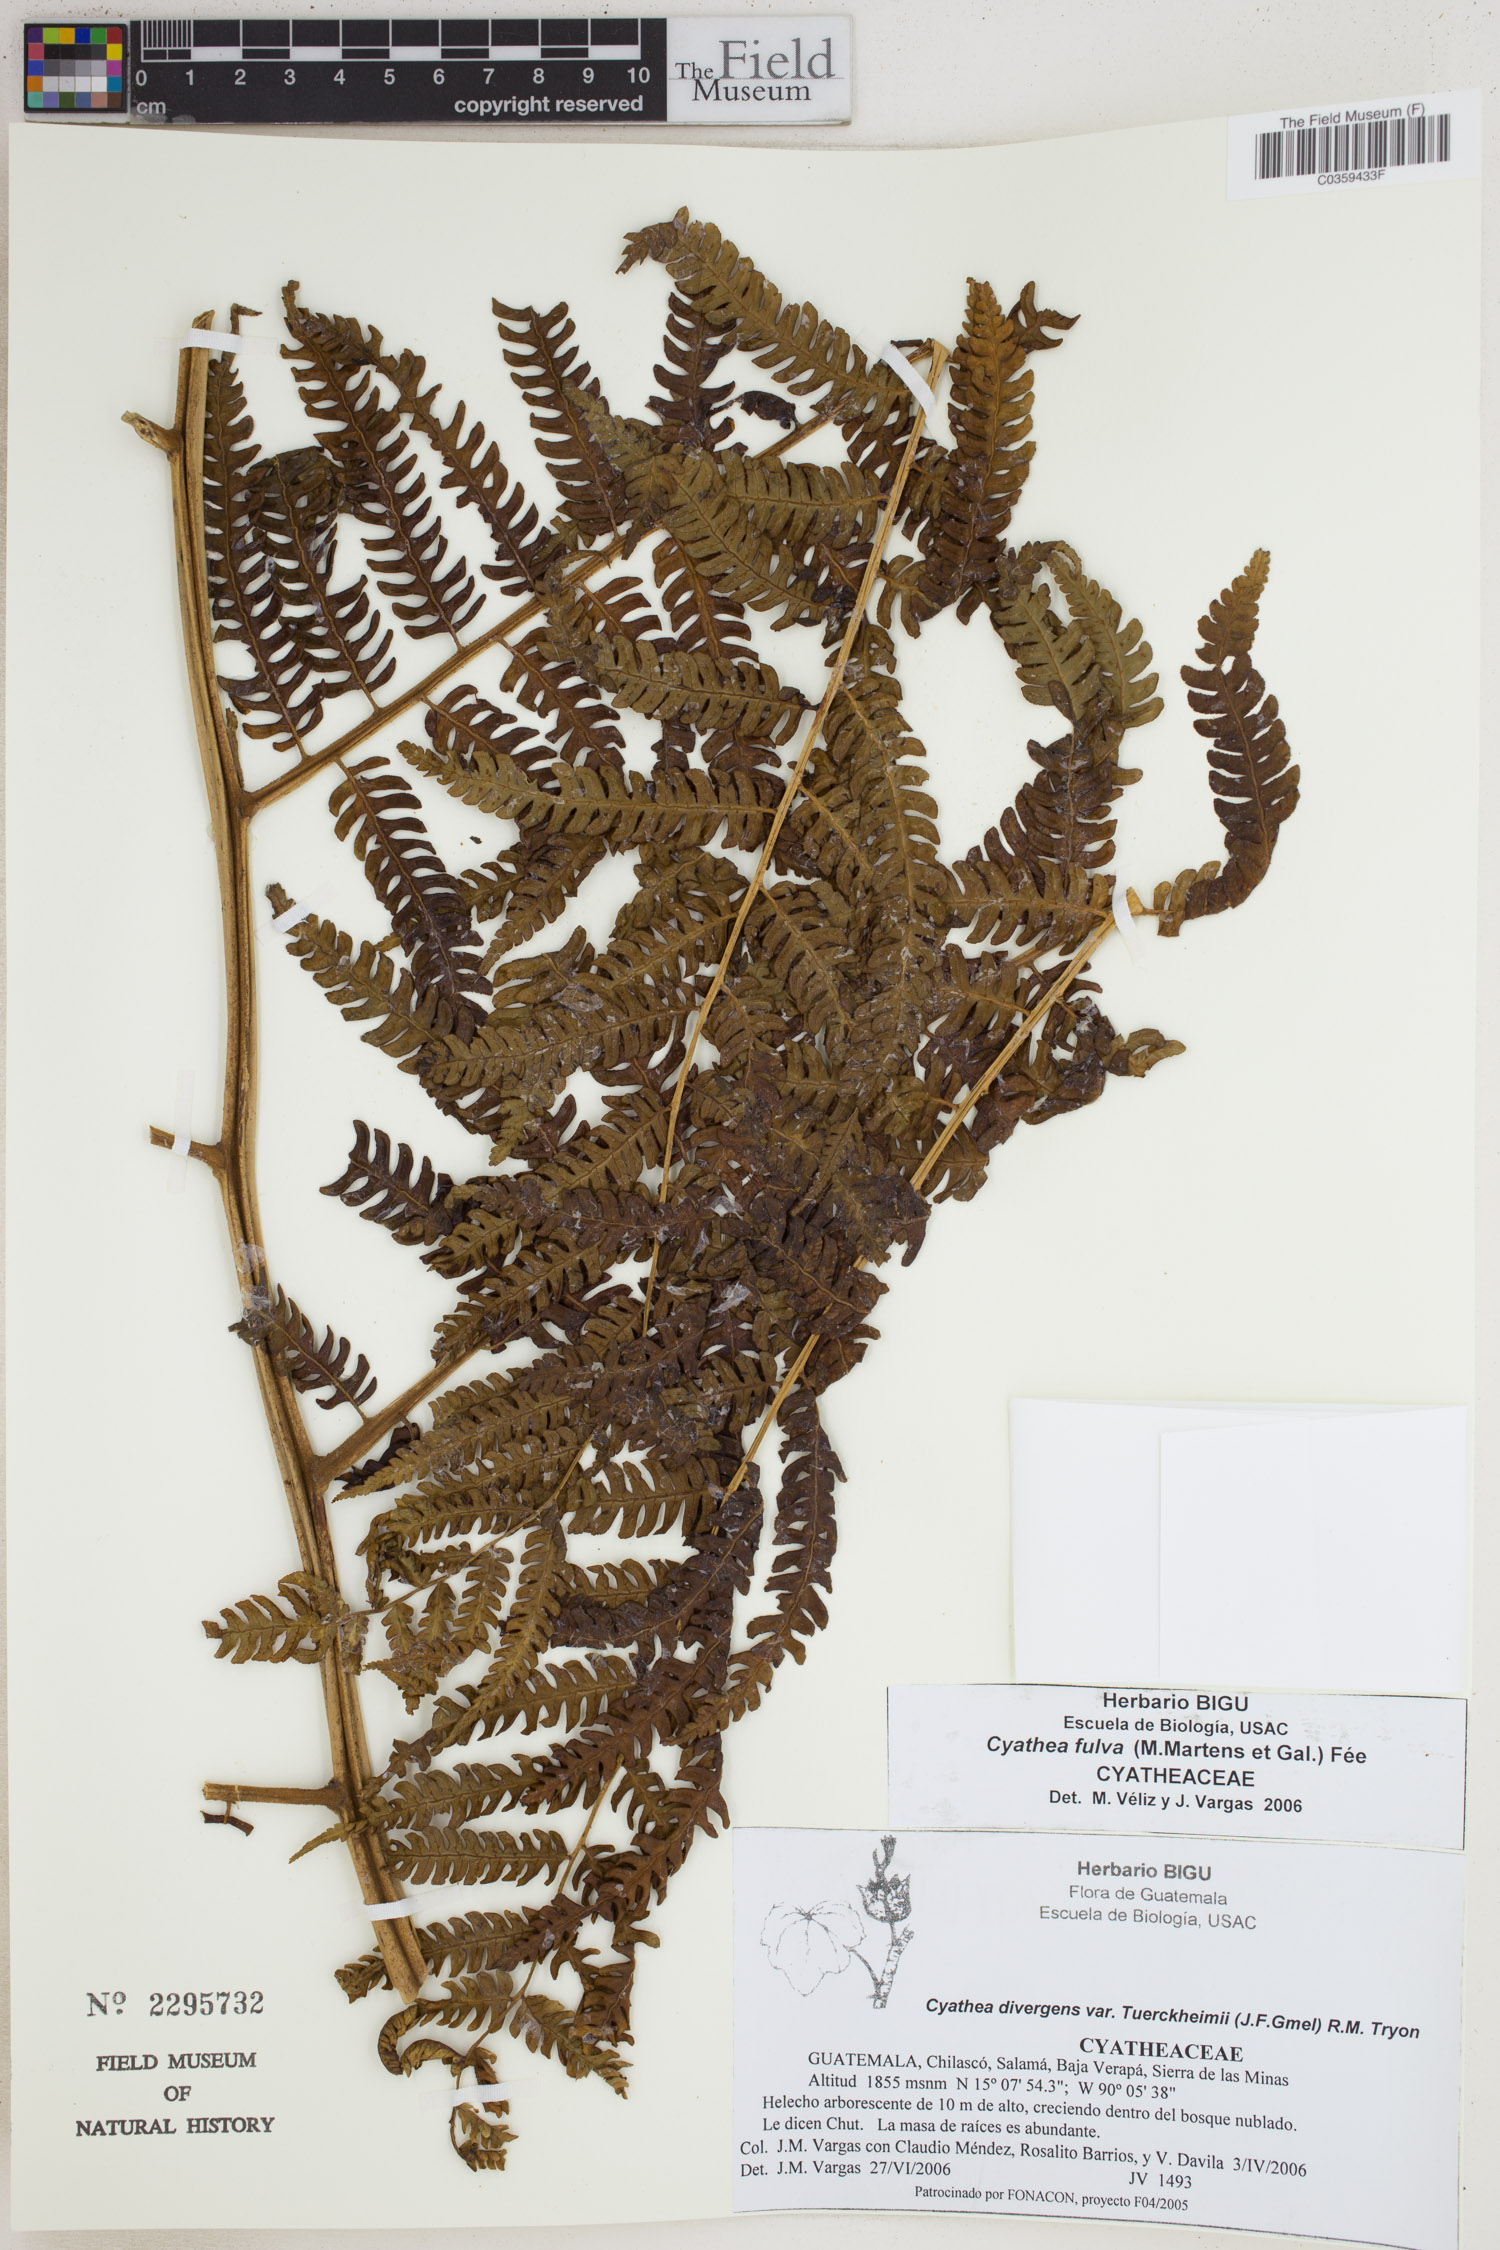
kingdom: Plantae
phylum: Tracheophyta
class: Polypodiopsida
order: Cyatheales
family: Cyatheaceae
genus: Cyathea
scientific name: Cyathea fulva
